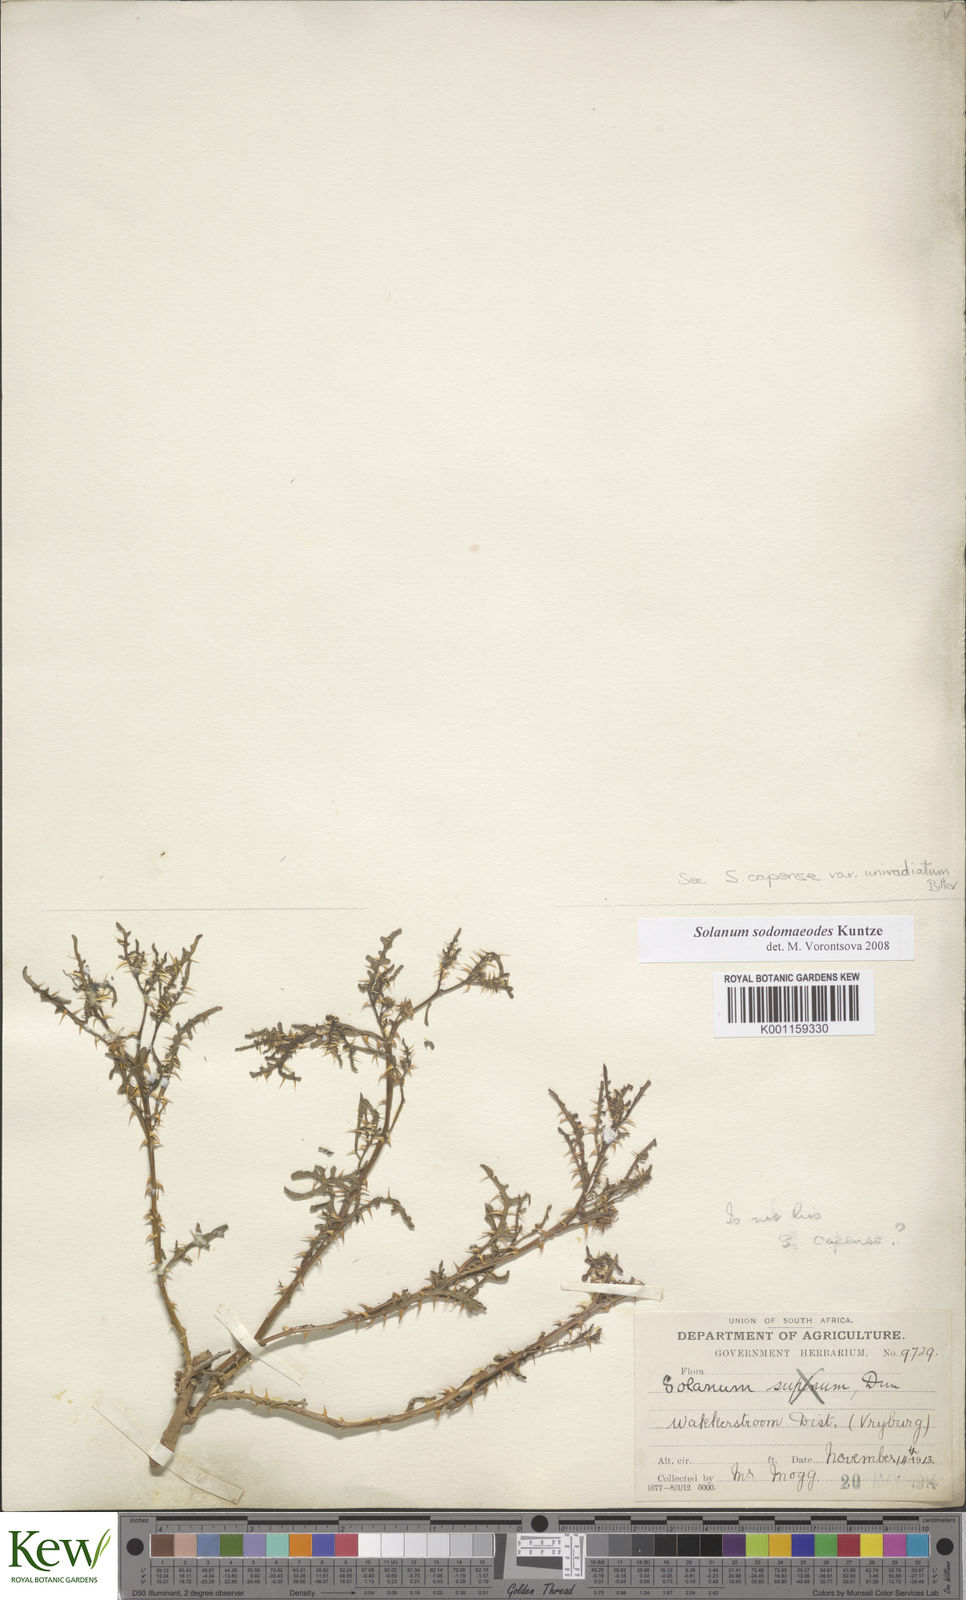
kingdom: Plantae
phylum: Tracheophyta
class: Magnoliopsida
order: Solanales
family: Solanaceae
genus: Solanum
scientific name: Solanum linnaeanum
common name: Nightshade
